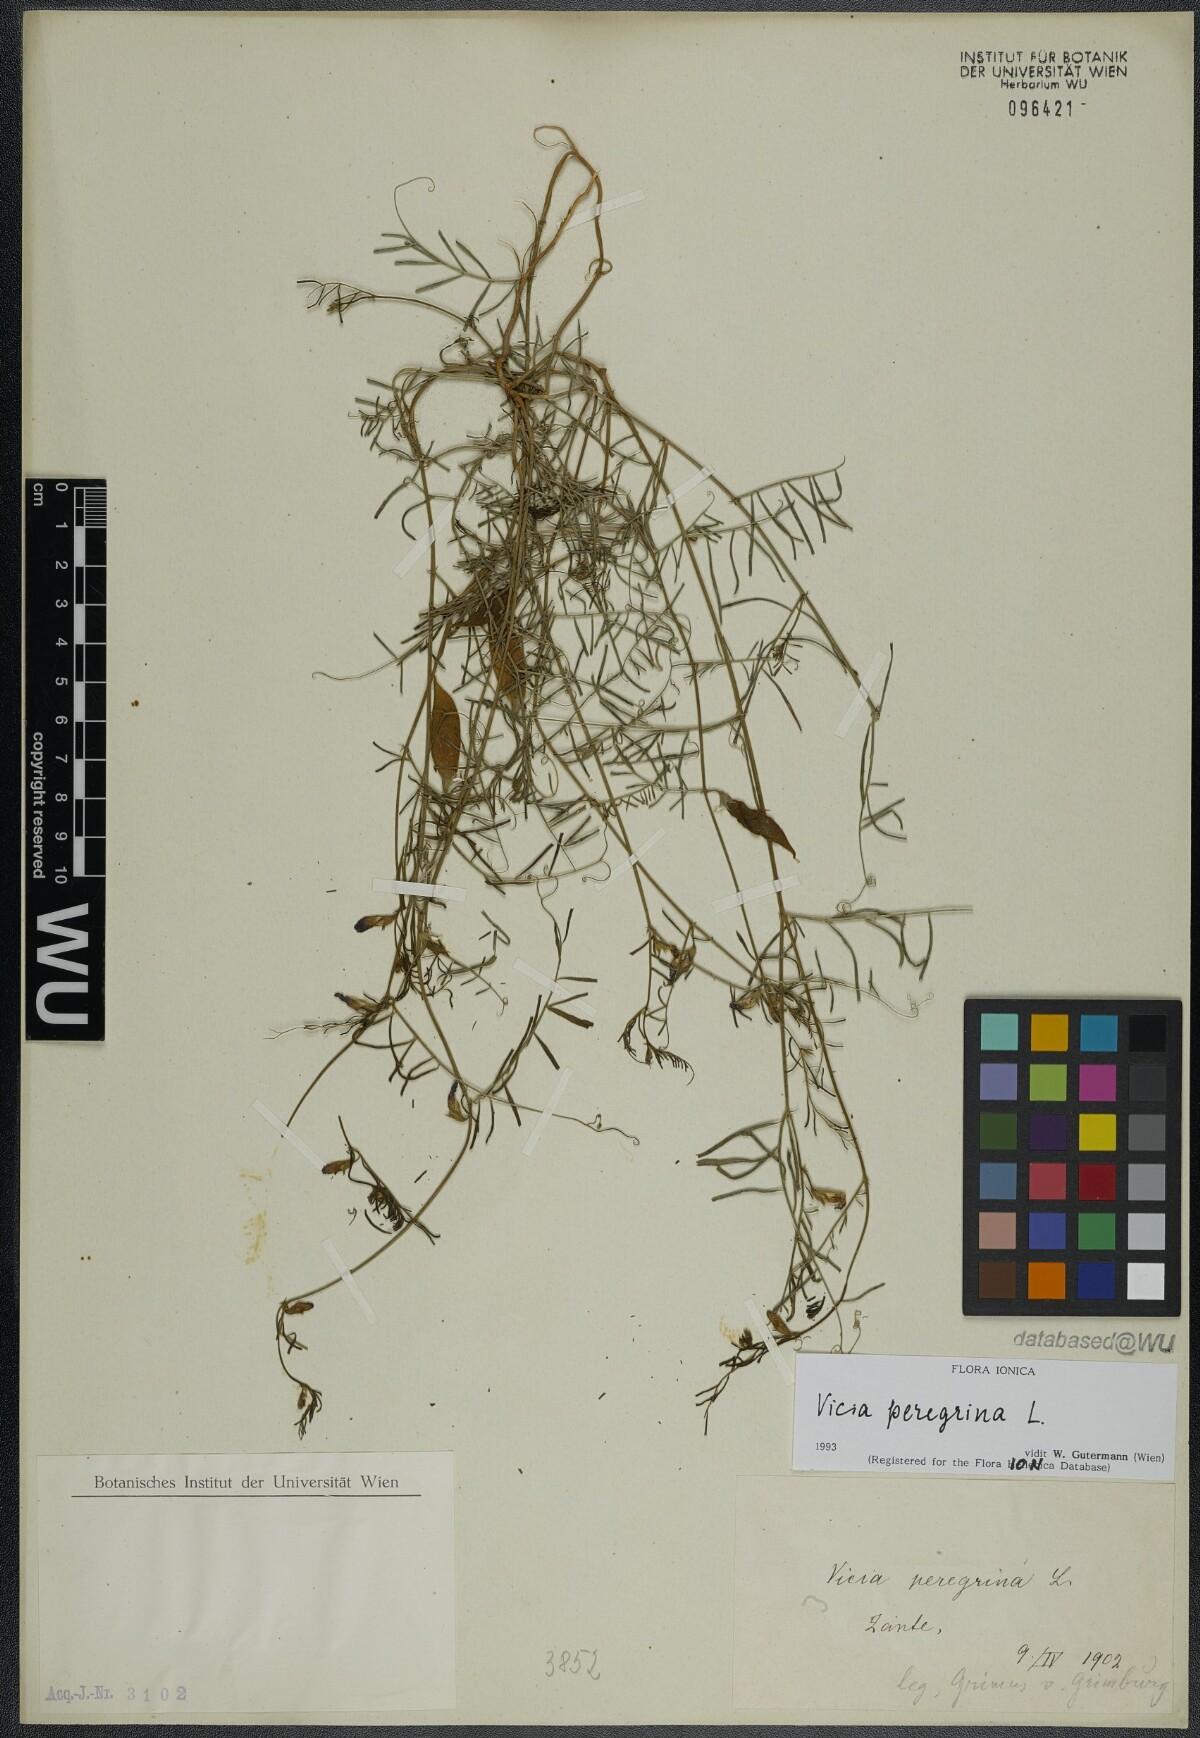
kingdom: Plantae
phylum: Tracheophyta
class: Magnoliopsida
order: Fabales
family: Fabaceae
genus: Vicia
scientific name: Vicia peregrina
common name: Broad-pod vetch
